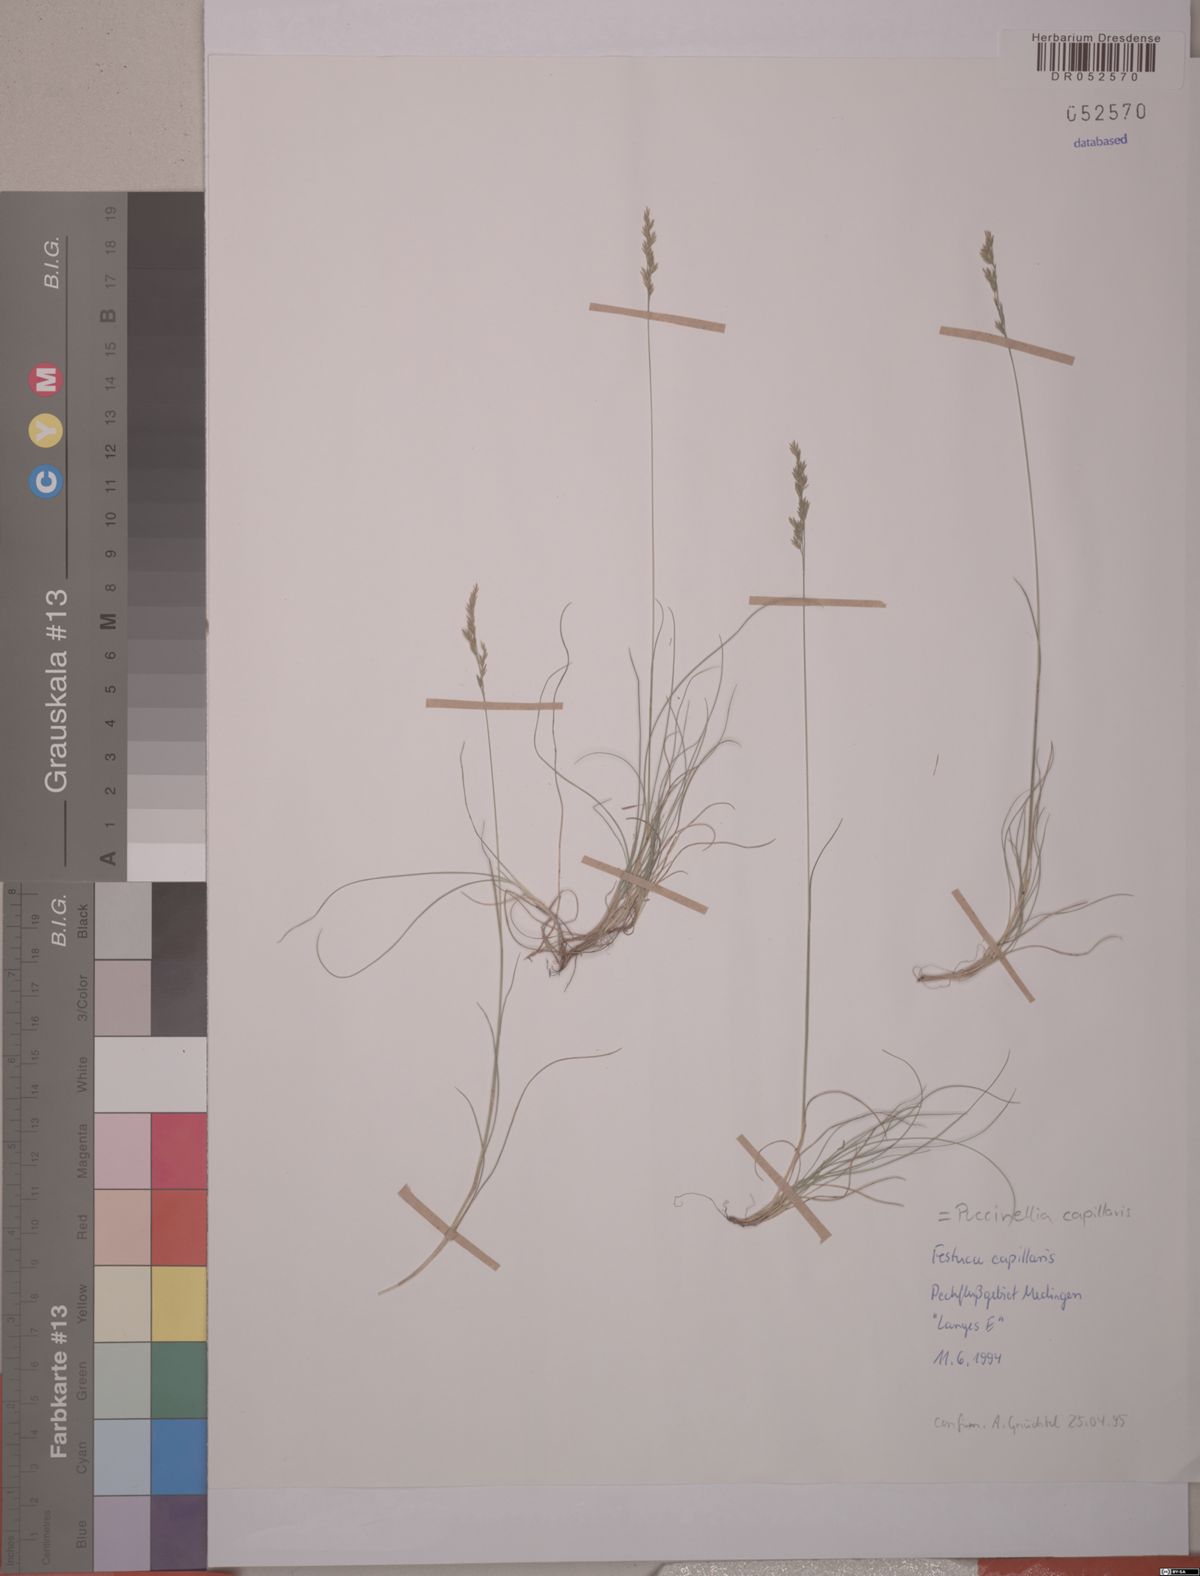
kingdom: Plantae
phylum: Tracheophyta
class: Liliopsida
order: Poales
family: Poaceae
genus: Festuca
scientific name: Festuca filiformis
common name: Fine-leaved sheep's-fescue
